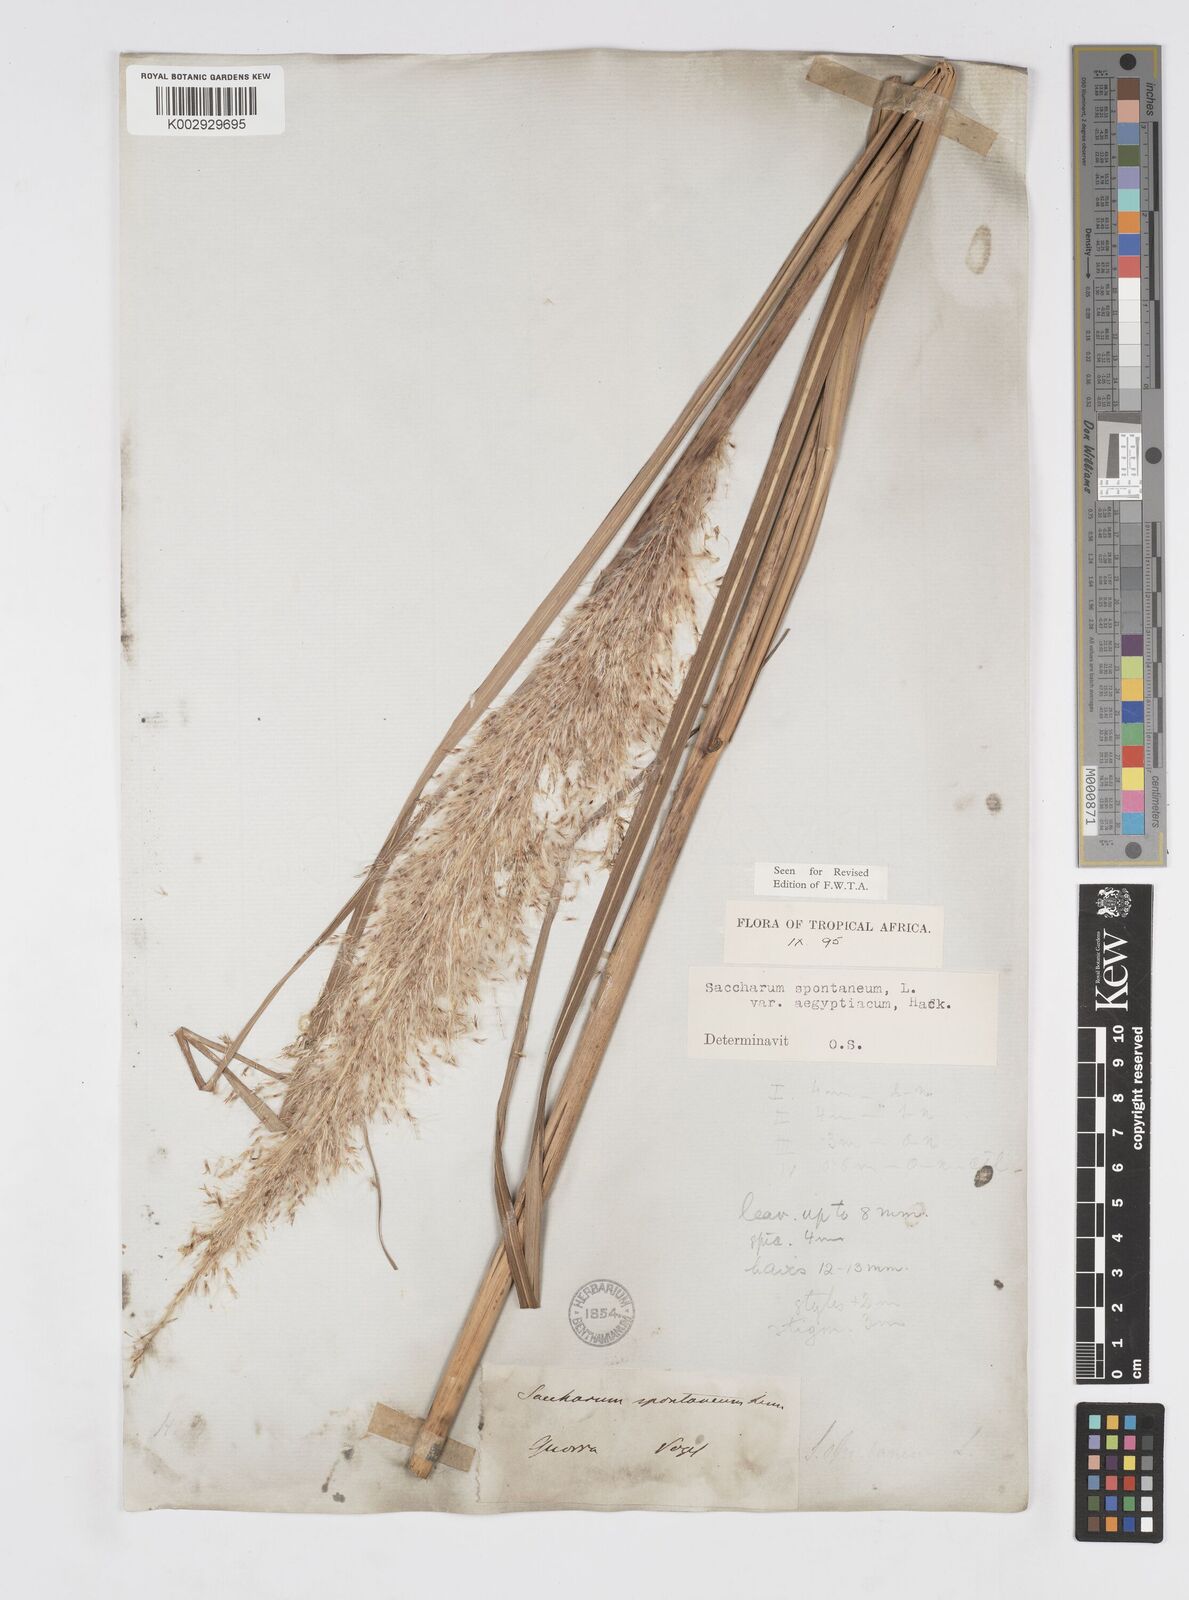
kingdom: Plantae
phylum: Tracheophyta
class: Liliopsida
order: Poales
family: Poaceae
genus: Saccharum
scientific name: Saccharum spontaneum
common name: Wild sugarcane
